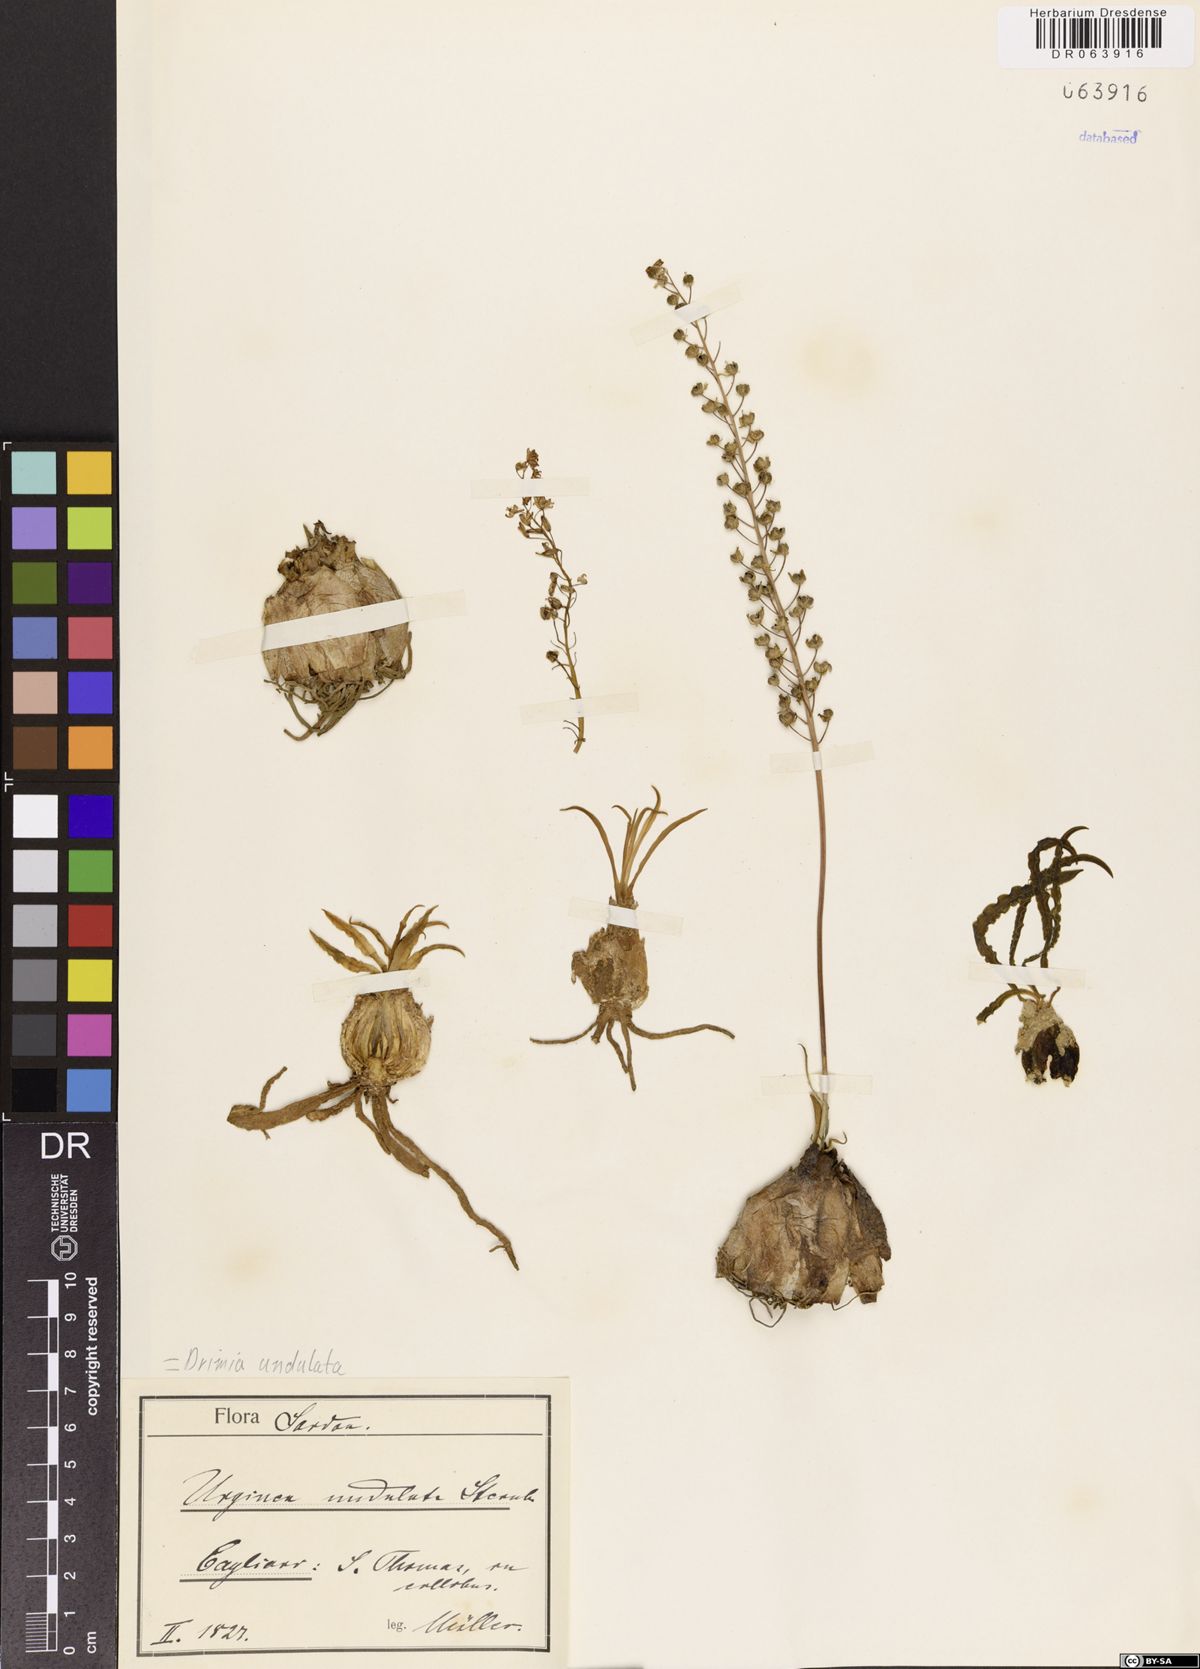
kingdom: Plantae
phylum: Tracheophyta
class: Liliopsida
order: Asparagales
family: Asparagaceae
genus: Ledebouria
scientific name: Ledebouria undulata
